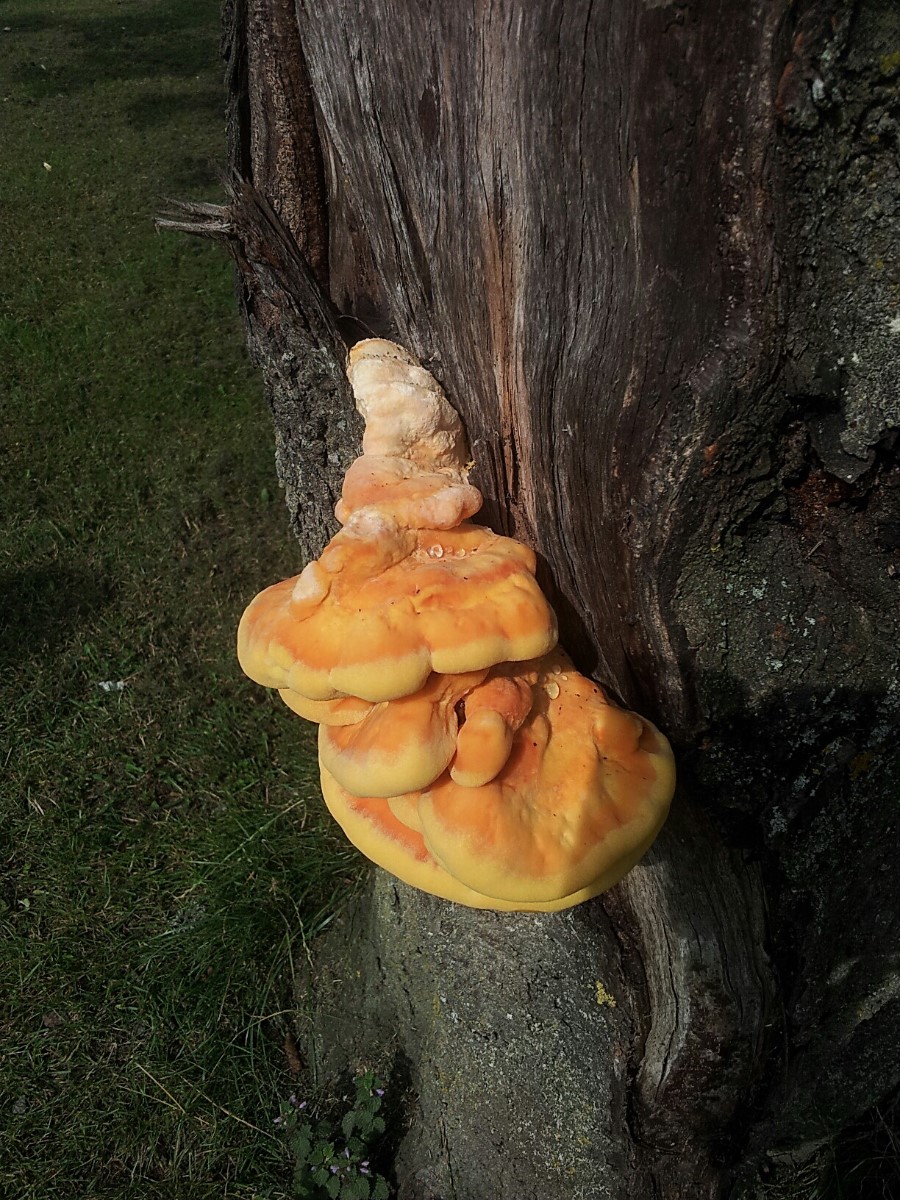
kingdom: Fungi
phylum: Basidiomycota
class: Agaricomycetes
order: Polyporales
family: Laetiporaceae
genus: Laetiporus
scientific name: Laetiporus sulphureus
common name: svovlporesvamp
